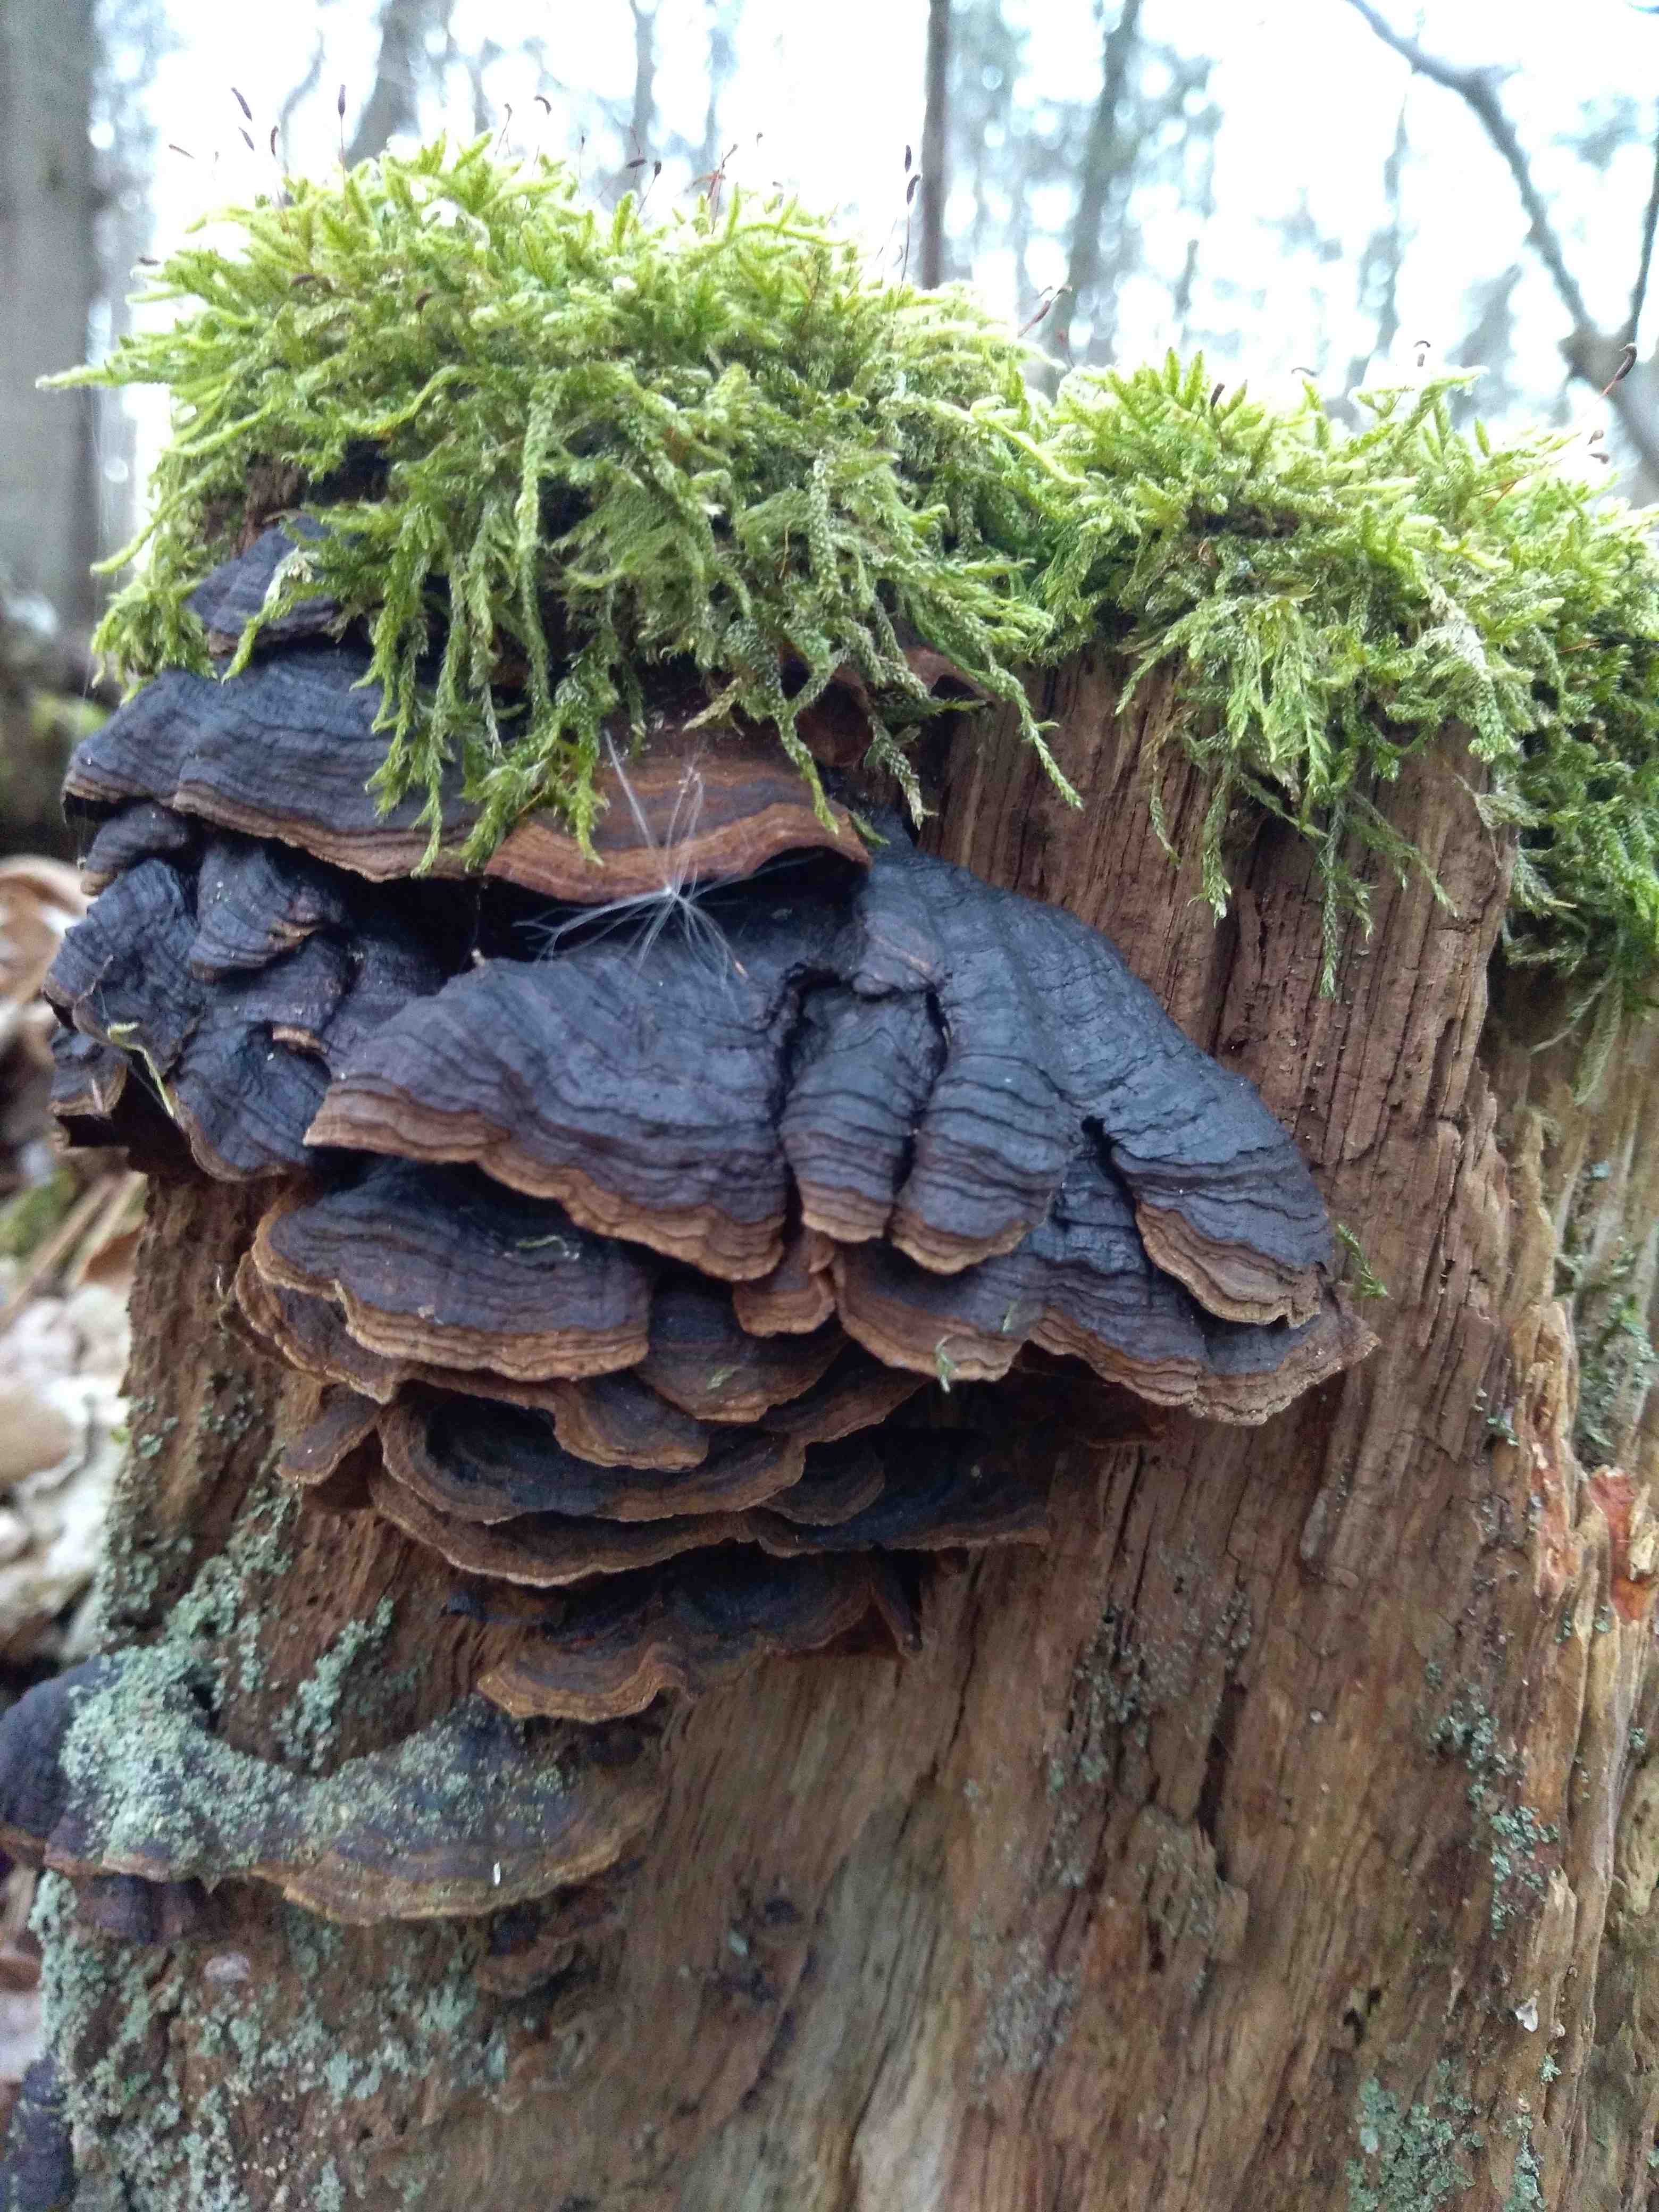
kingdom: Fungi
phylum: Basidiomycota
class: Agaricomycetes
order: Hymenochaetales
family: Hymenochaetaceae
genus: Hymenochaete
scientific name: Hymenochaete rubiginosa
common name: stiv ruslædersvamp
